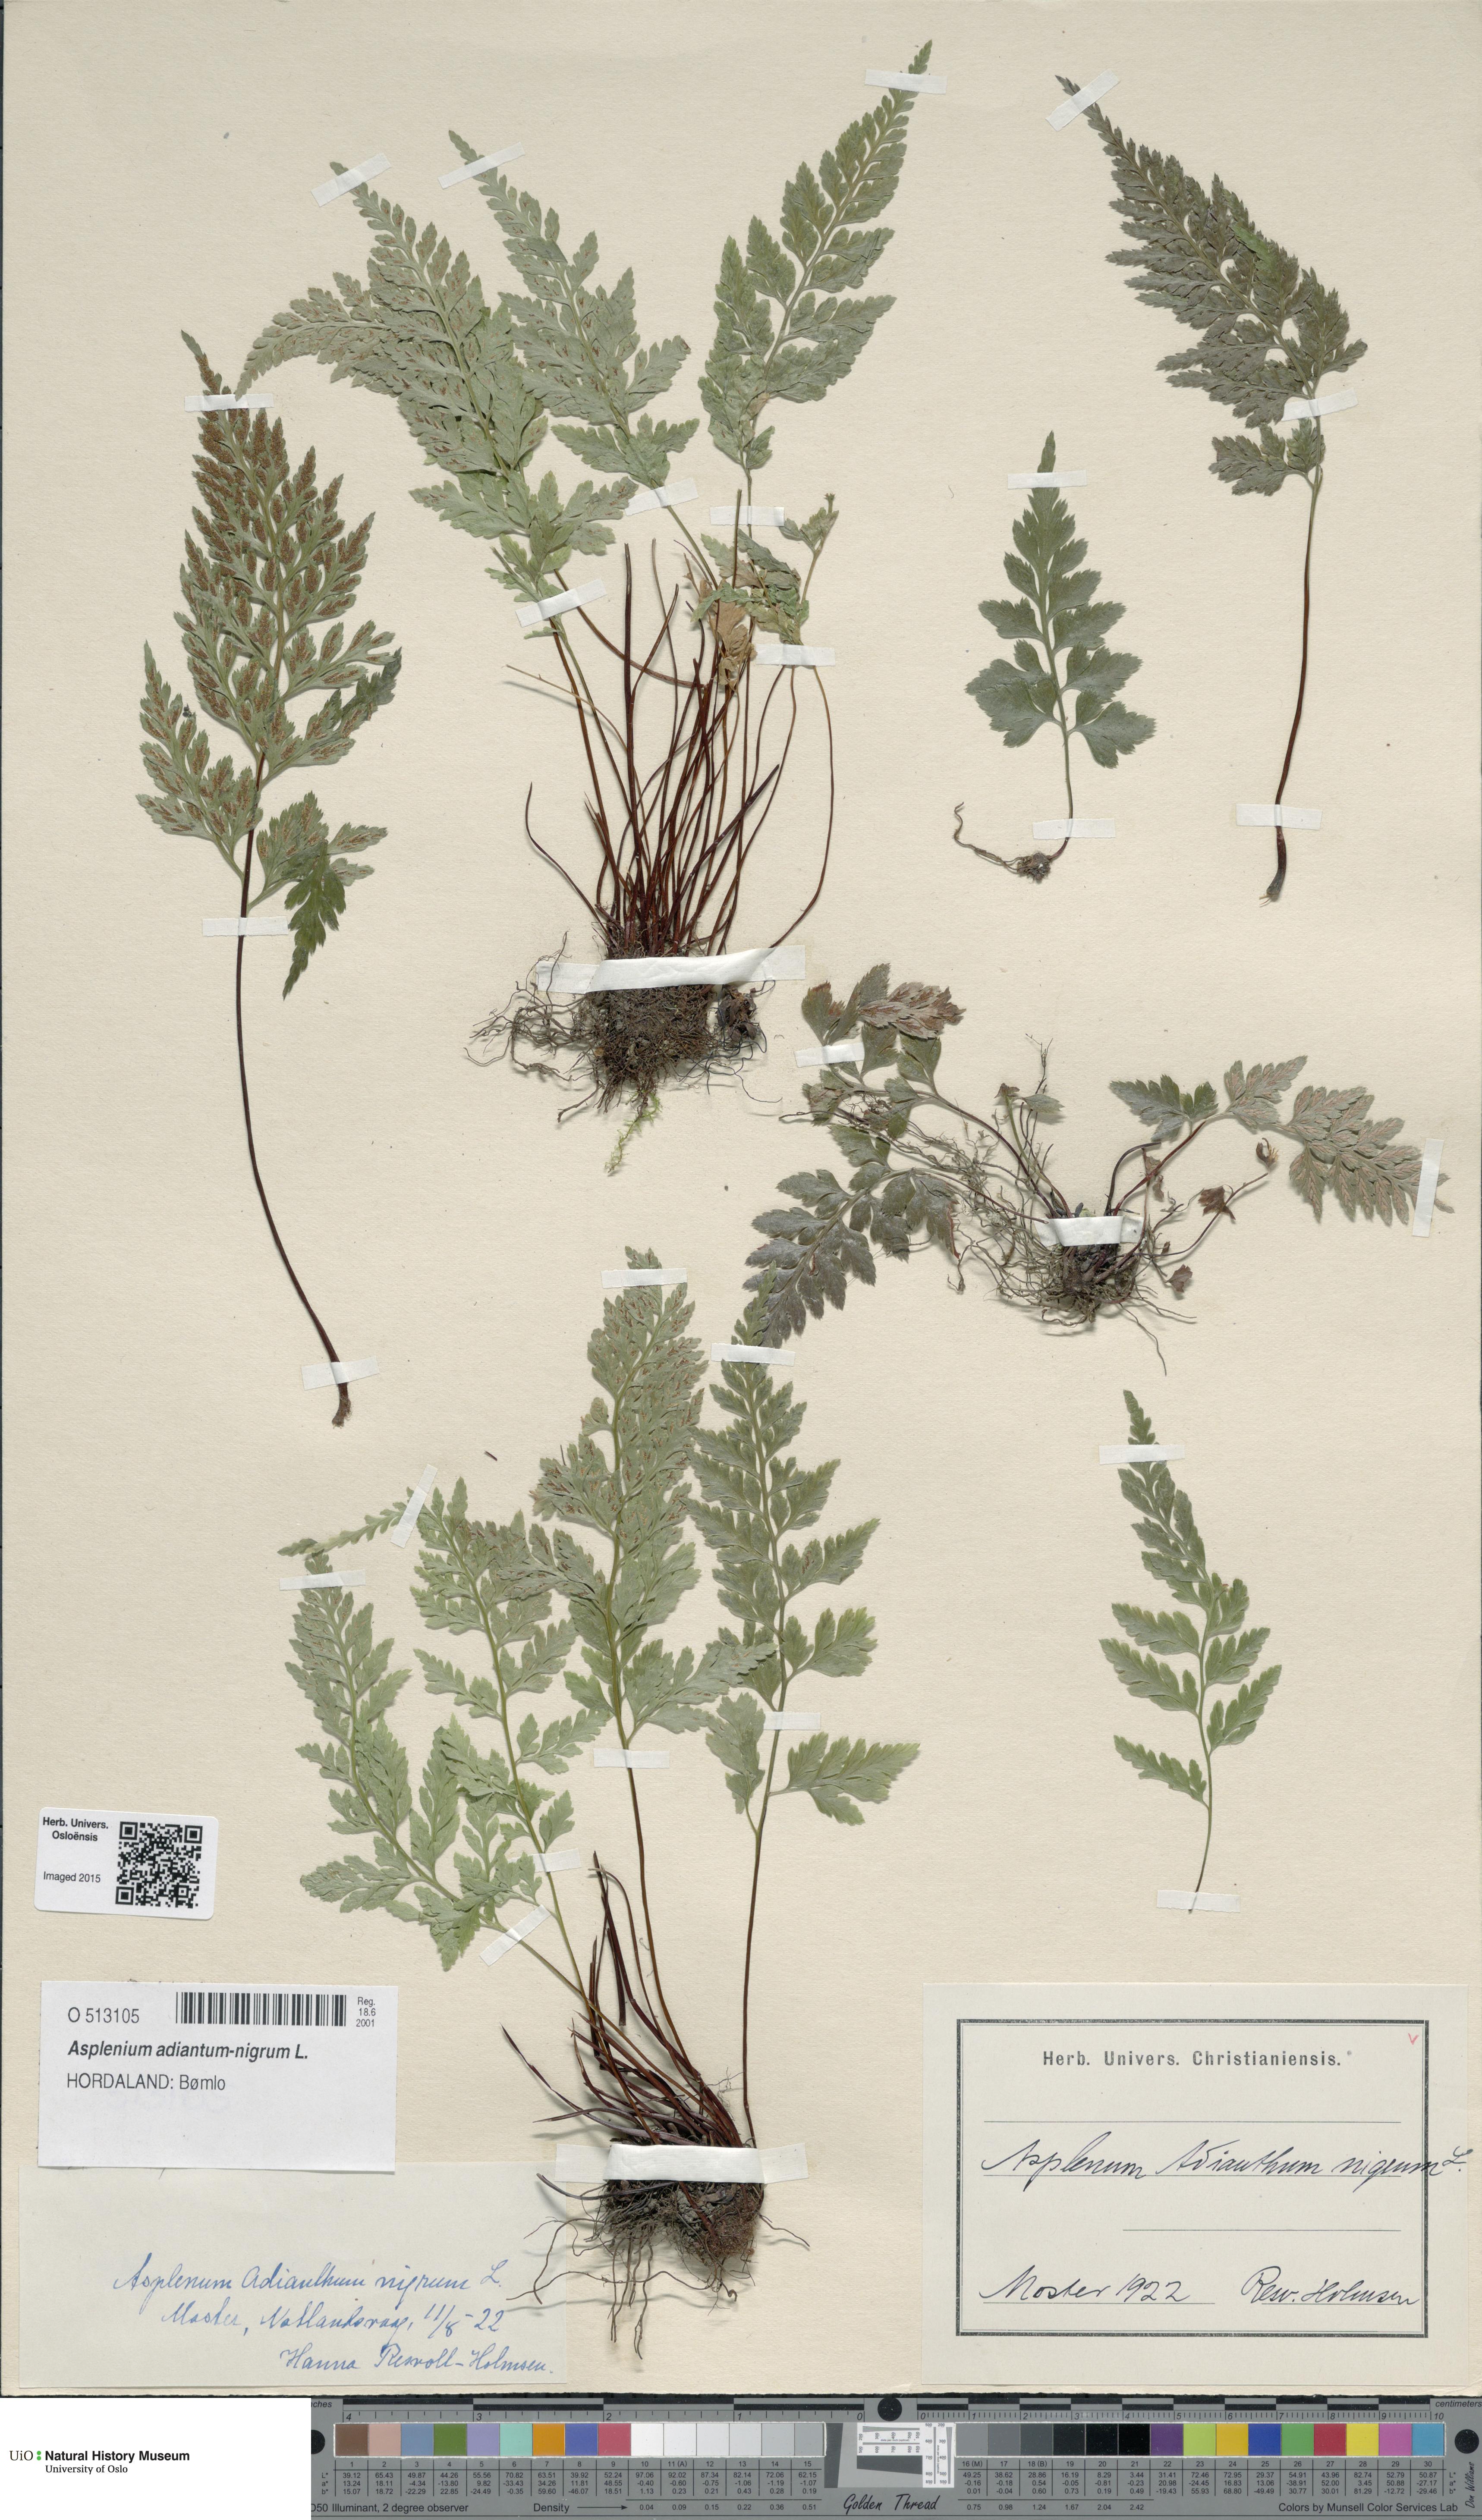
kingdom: Plantae
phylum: Tracheophyta
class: Polypodiopsida
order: Polypodiales
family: Aspleniaceae
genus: Asplenium
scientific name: Asplenium adiantum-nigrum
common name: Black spleenwort
